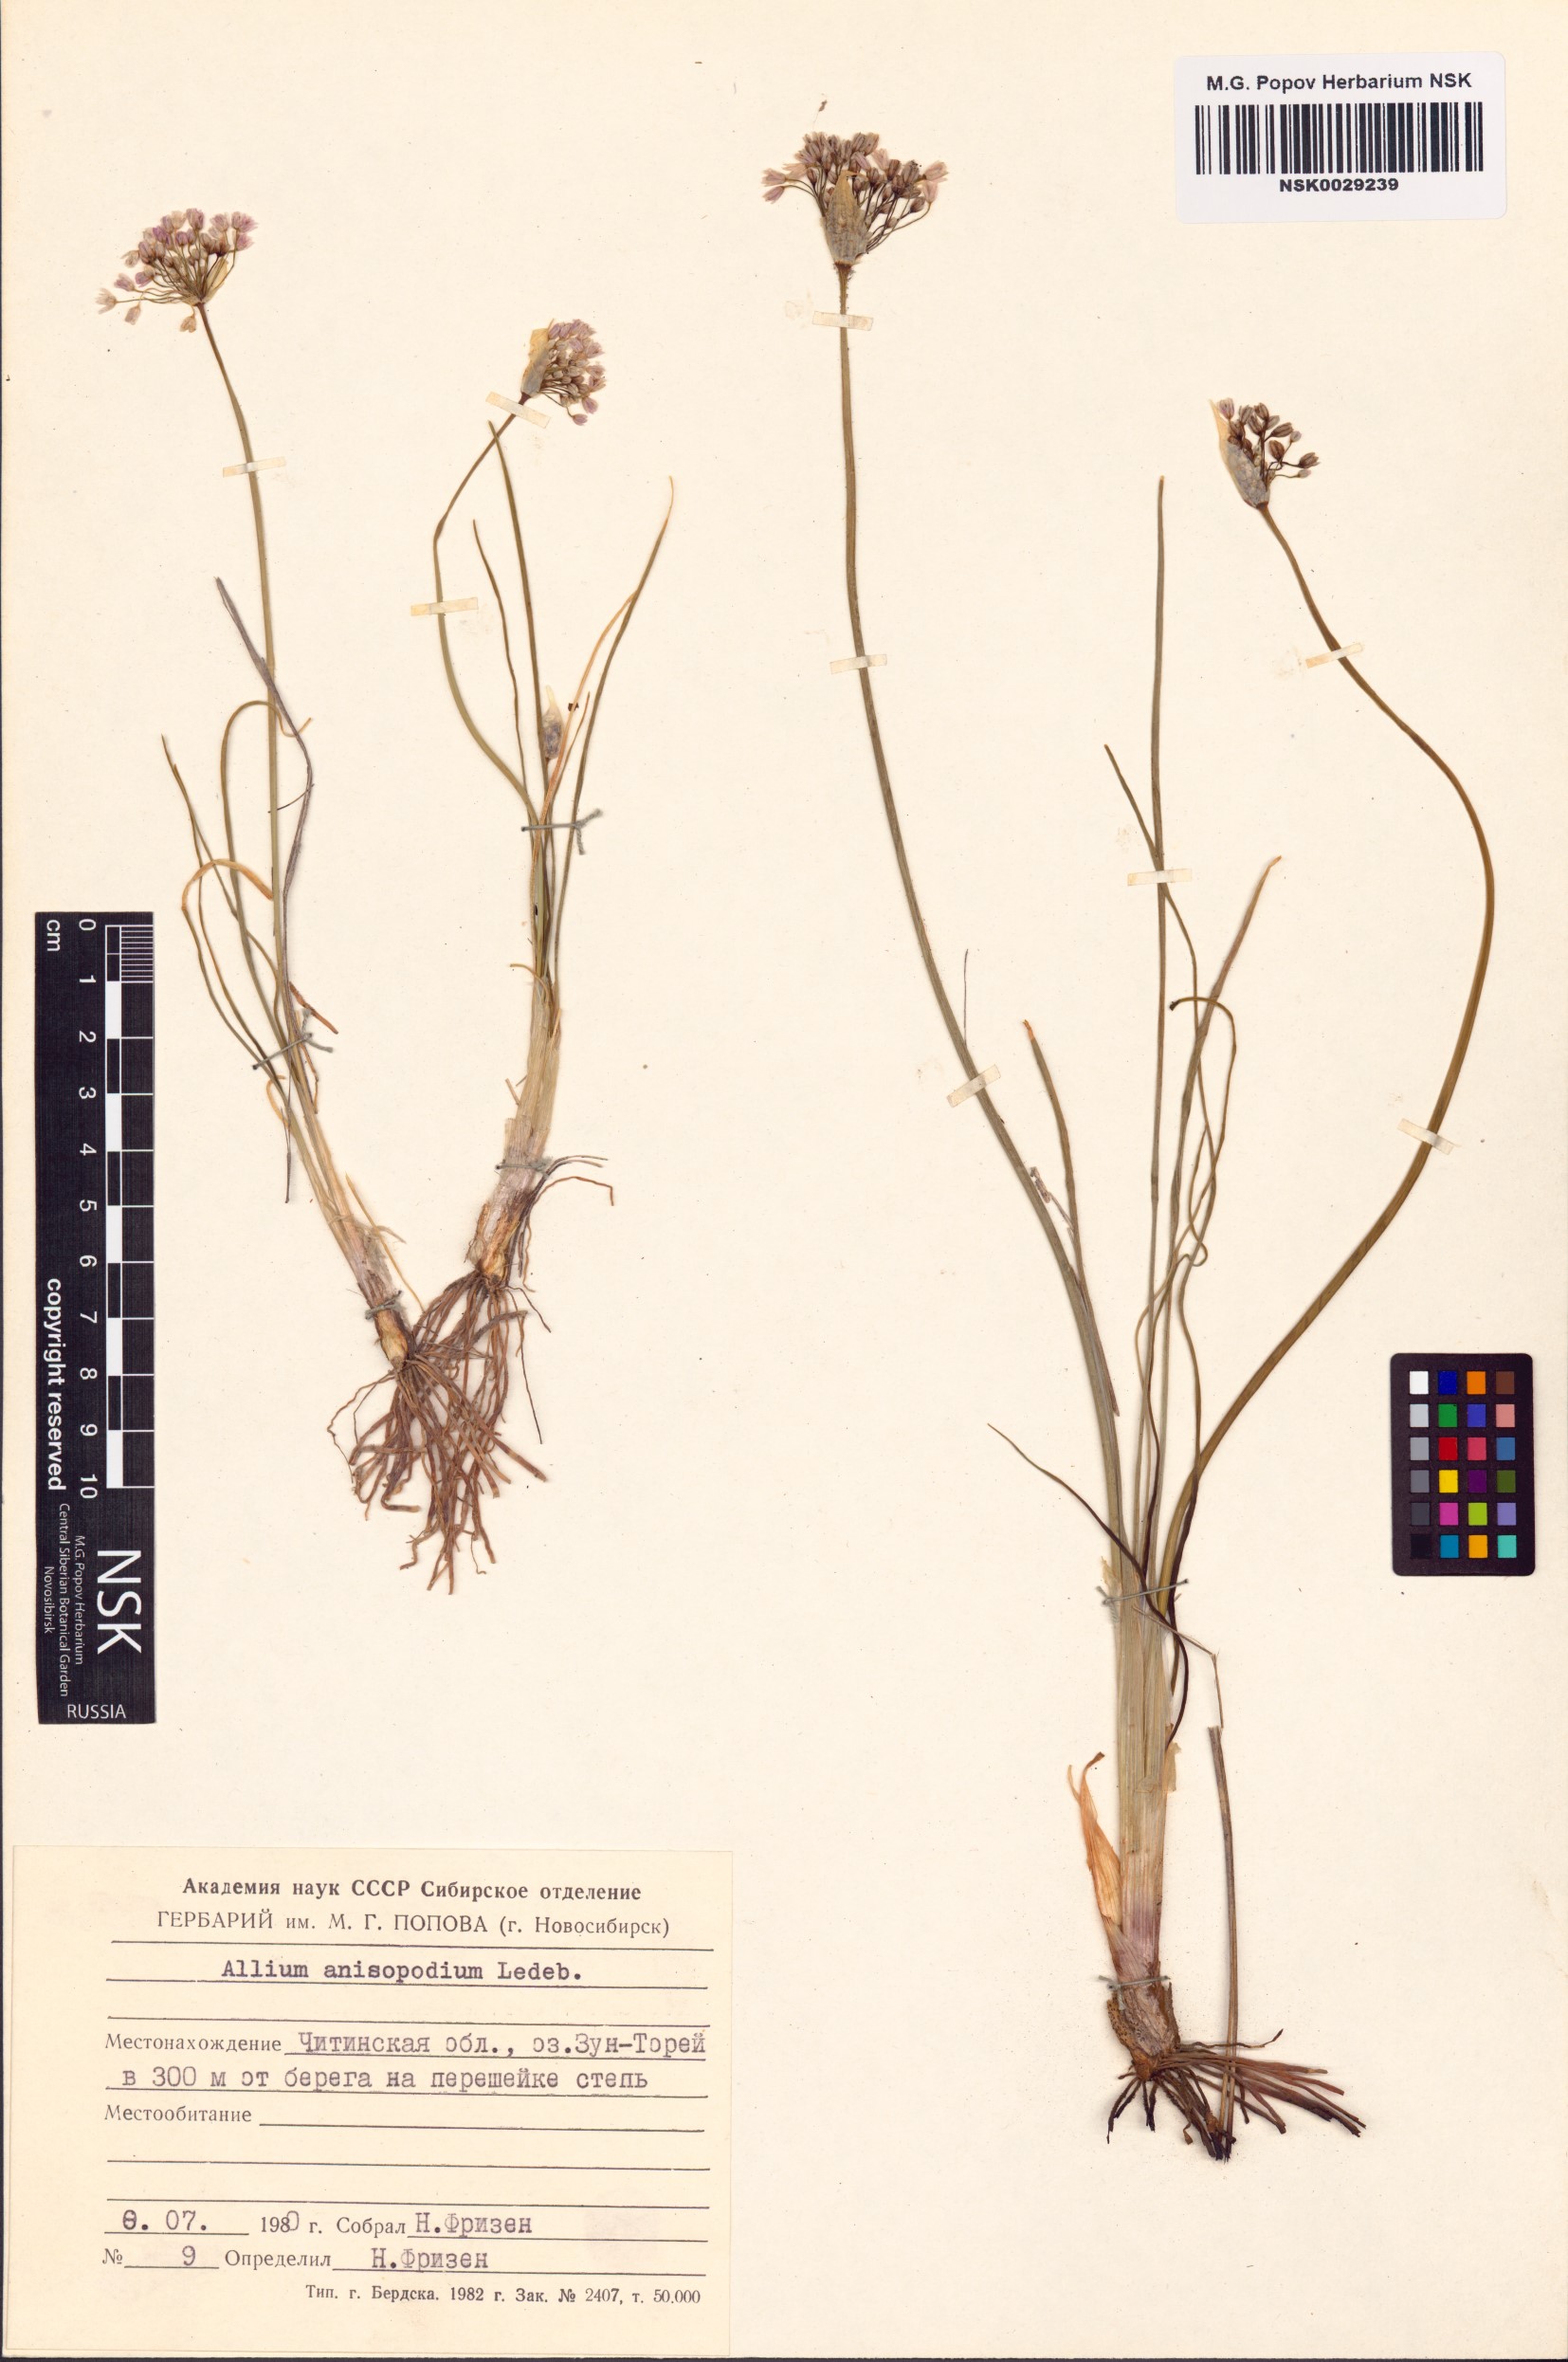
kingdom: Plantae
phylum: Tracheophyta
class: Liliopsida
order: Asparagales
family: Amaryllidaceae
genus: Allium
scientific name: Allium anisopodium
